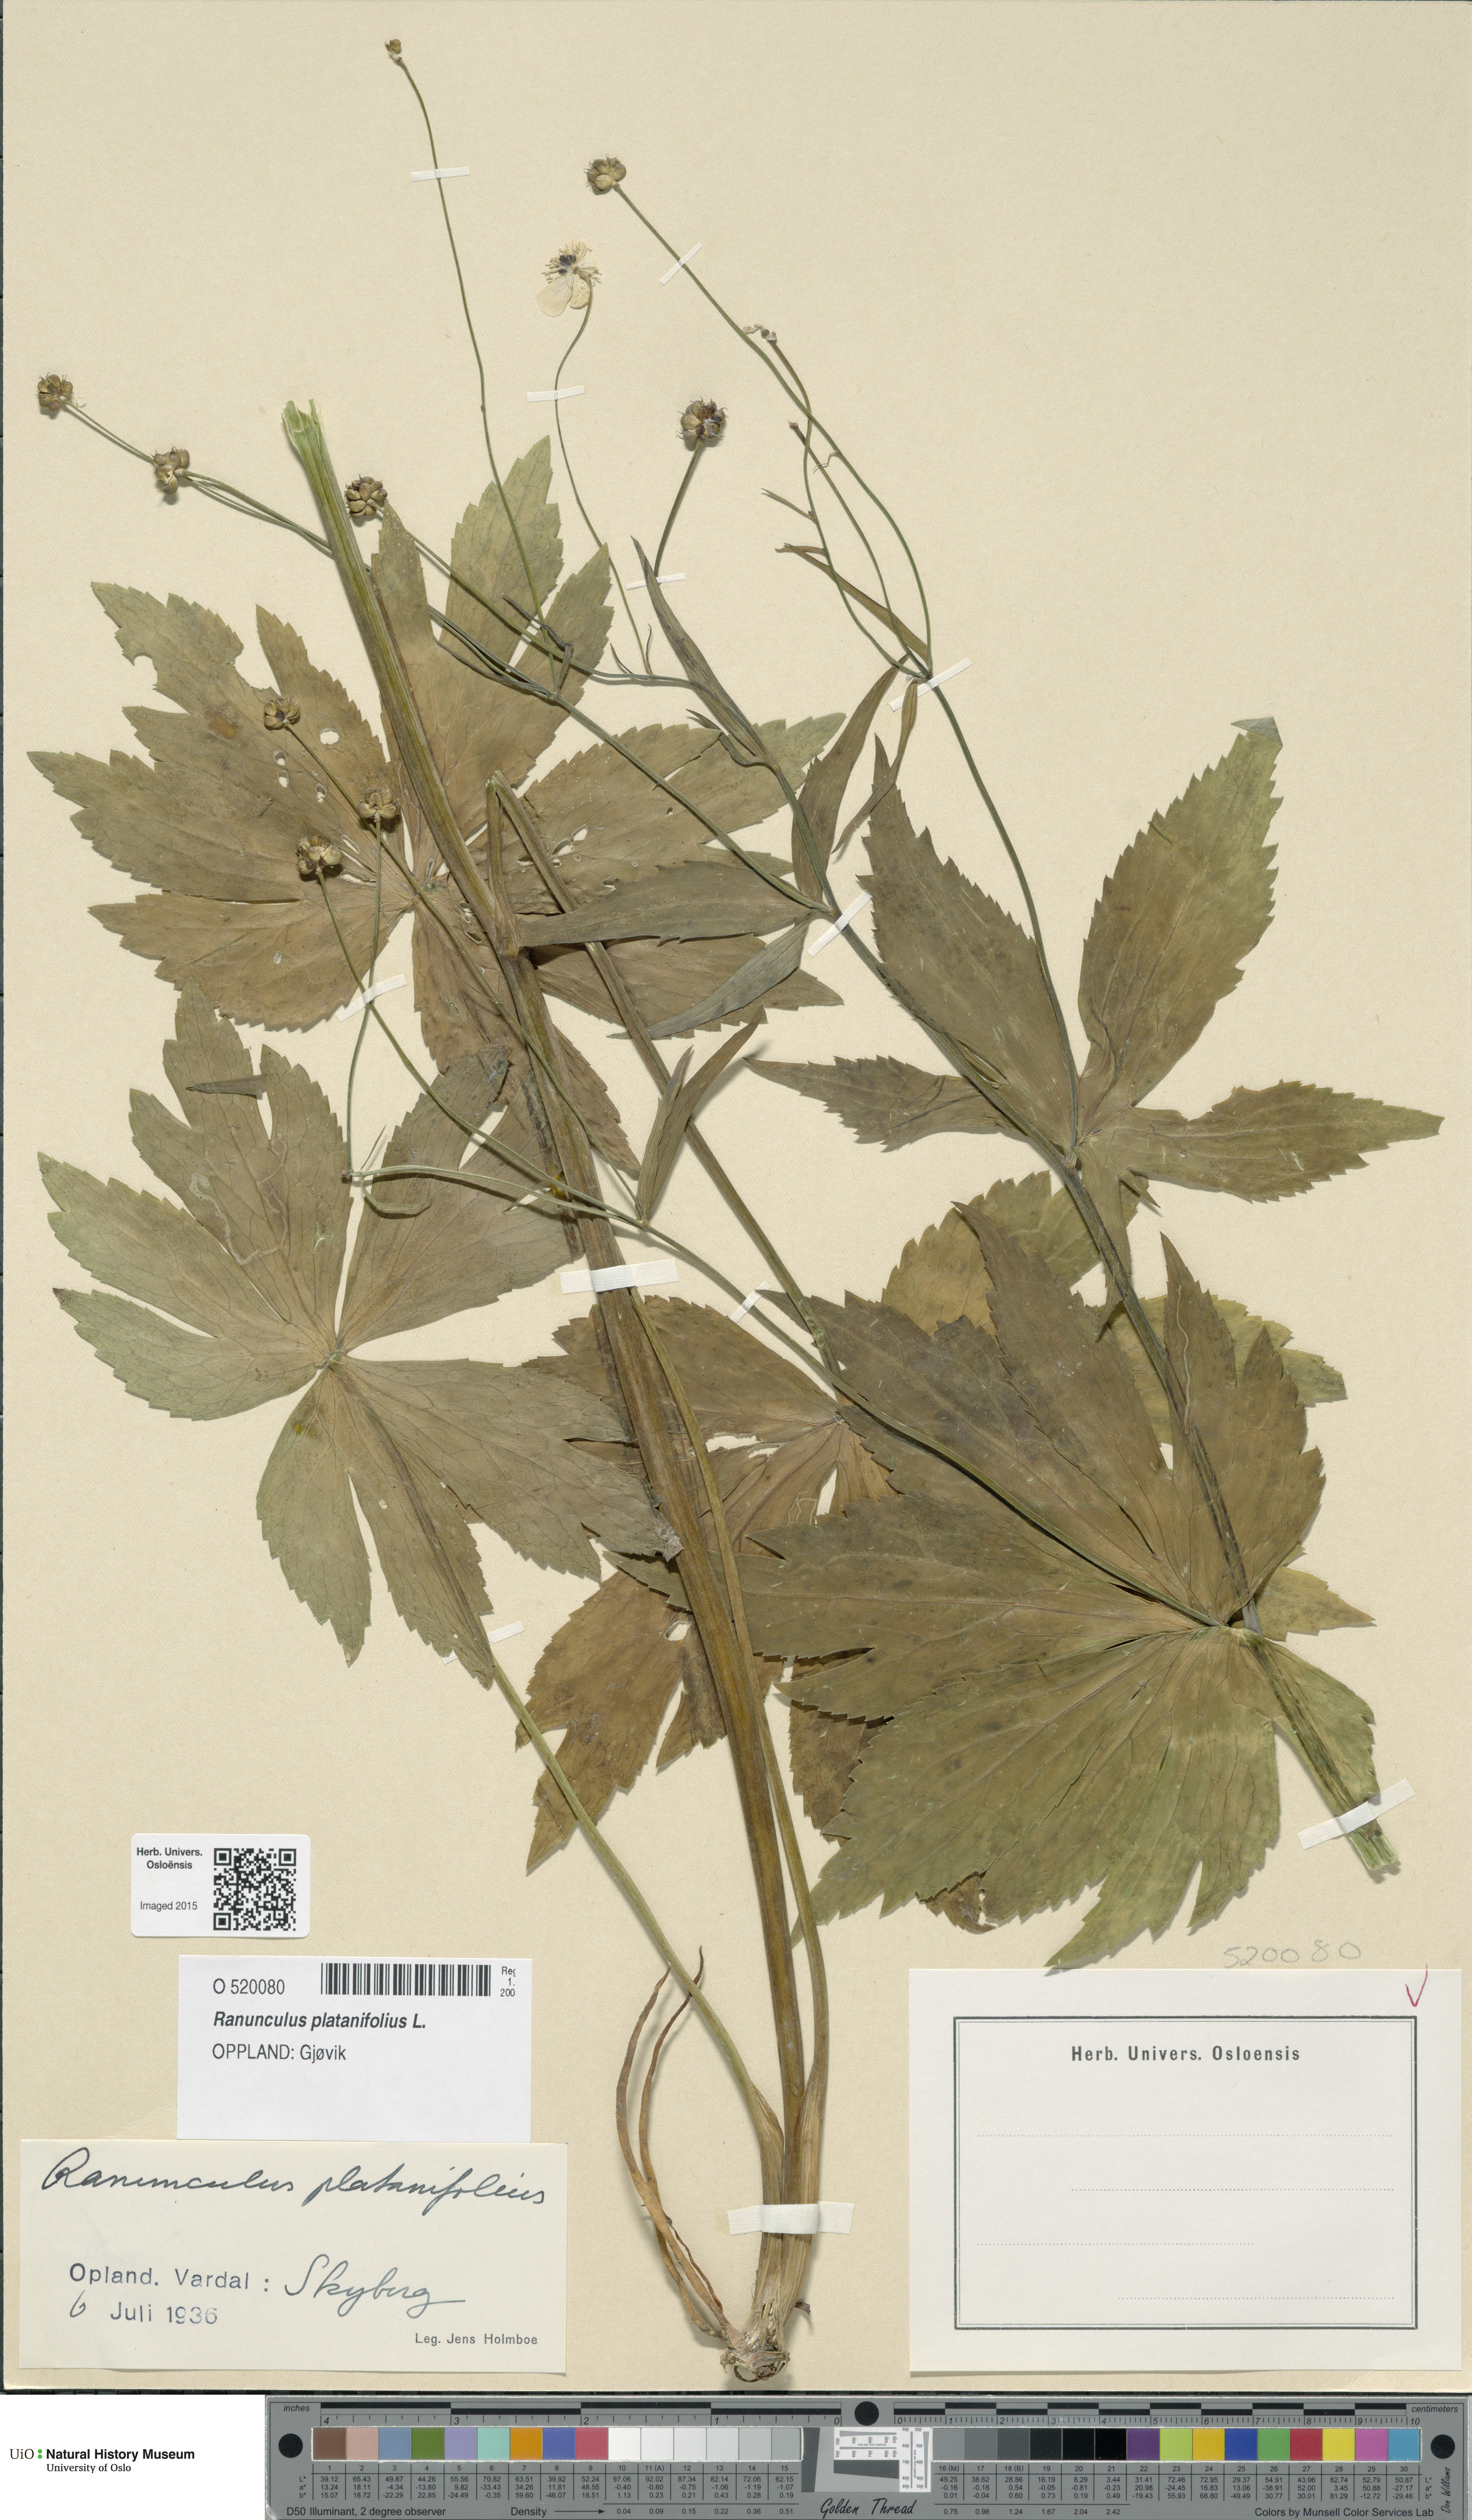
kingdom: Plantae
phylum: Tracheophyta
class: Magnoliopsida
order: Ranunculales
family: Ranunculaceae
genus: Ranunculus
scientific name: Ranunculus platanifolius
